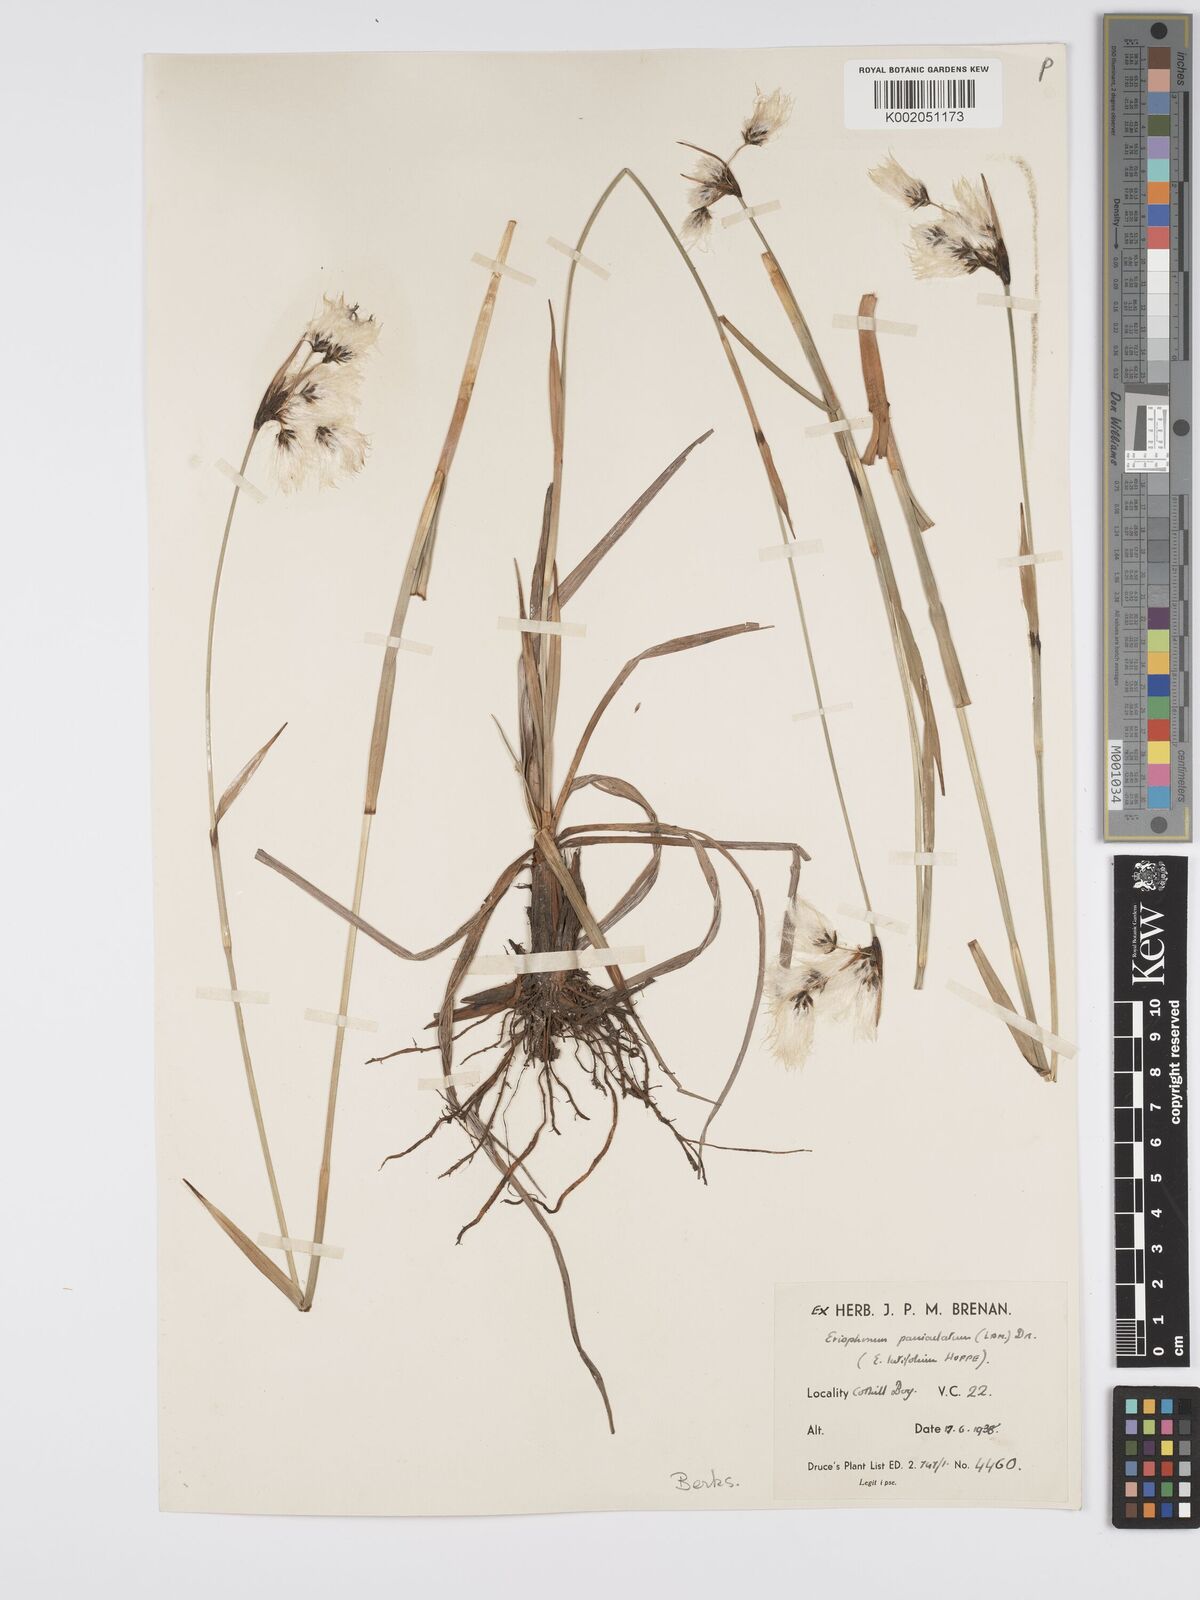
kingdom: Plantae
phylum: Tracheophyta
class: Liliopsida
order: Poales
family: Cyperaceae
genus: Eriophorum
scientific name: Eriophorum latifolium
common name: Broad-leaved cottongrass
